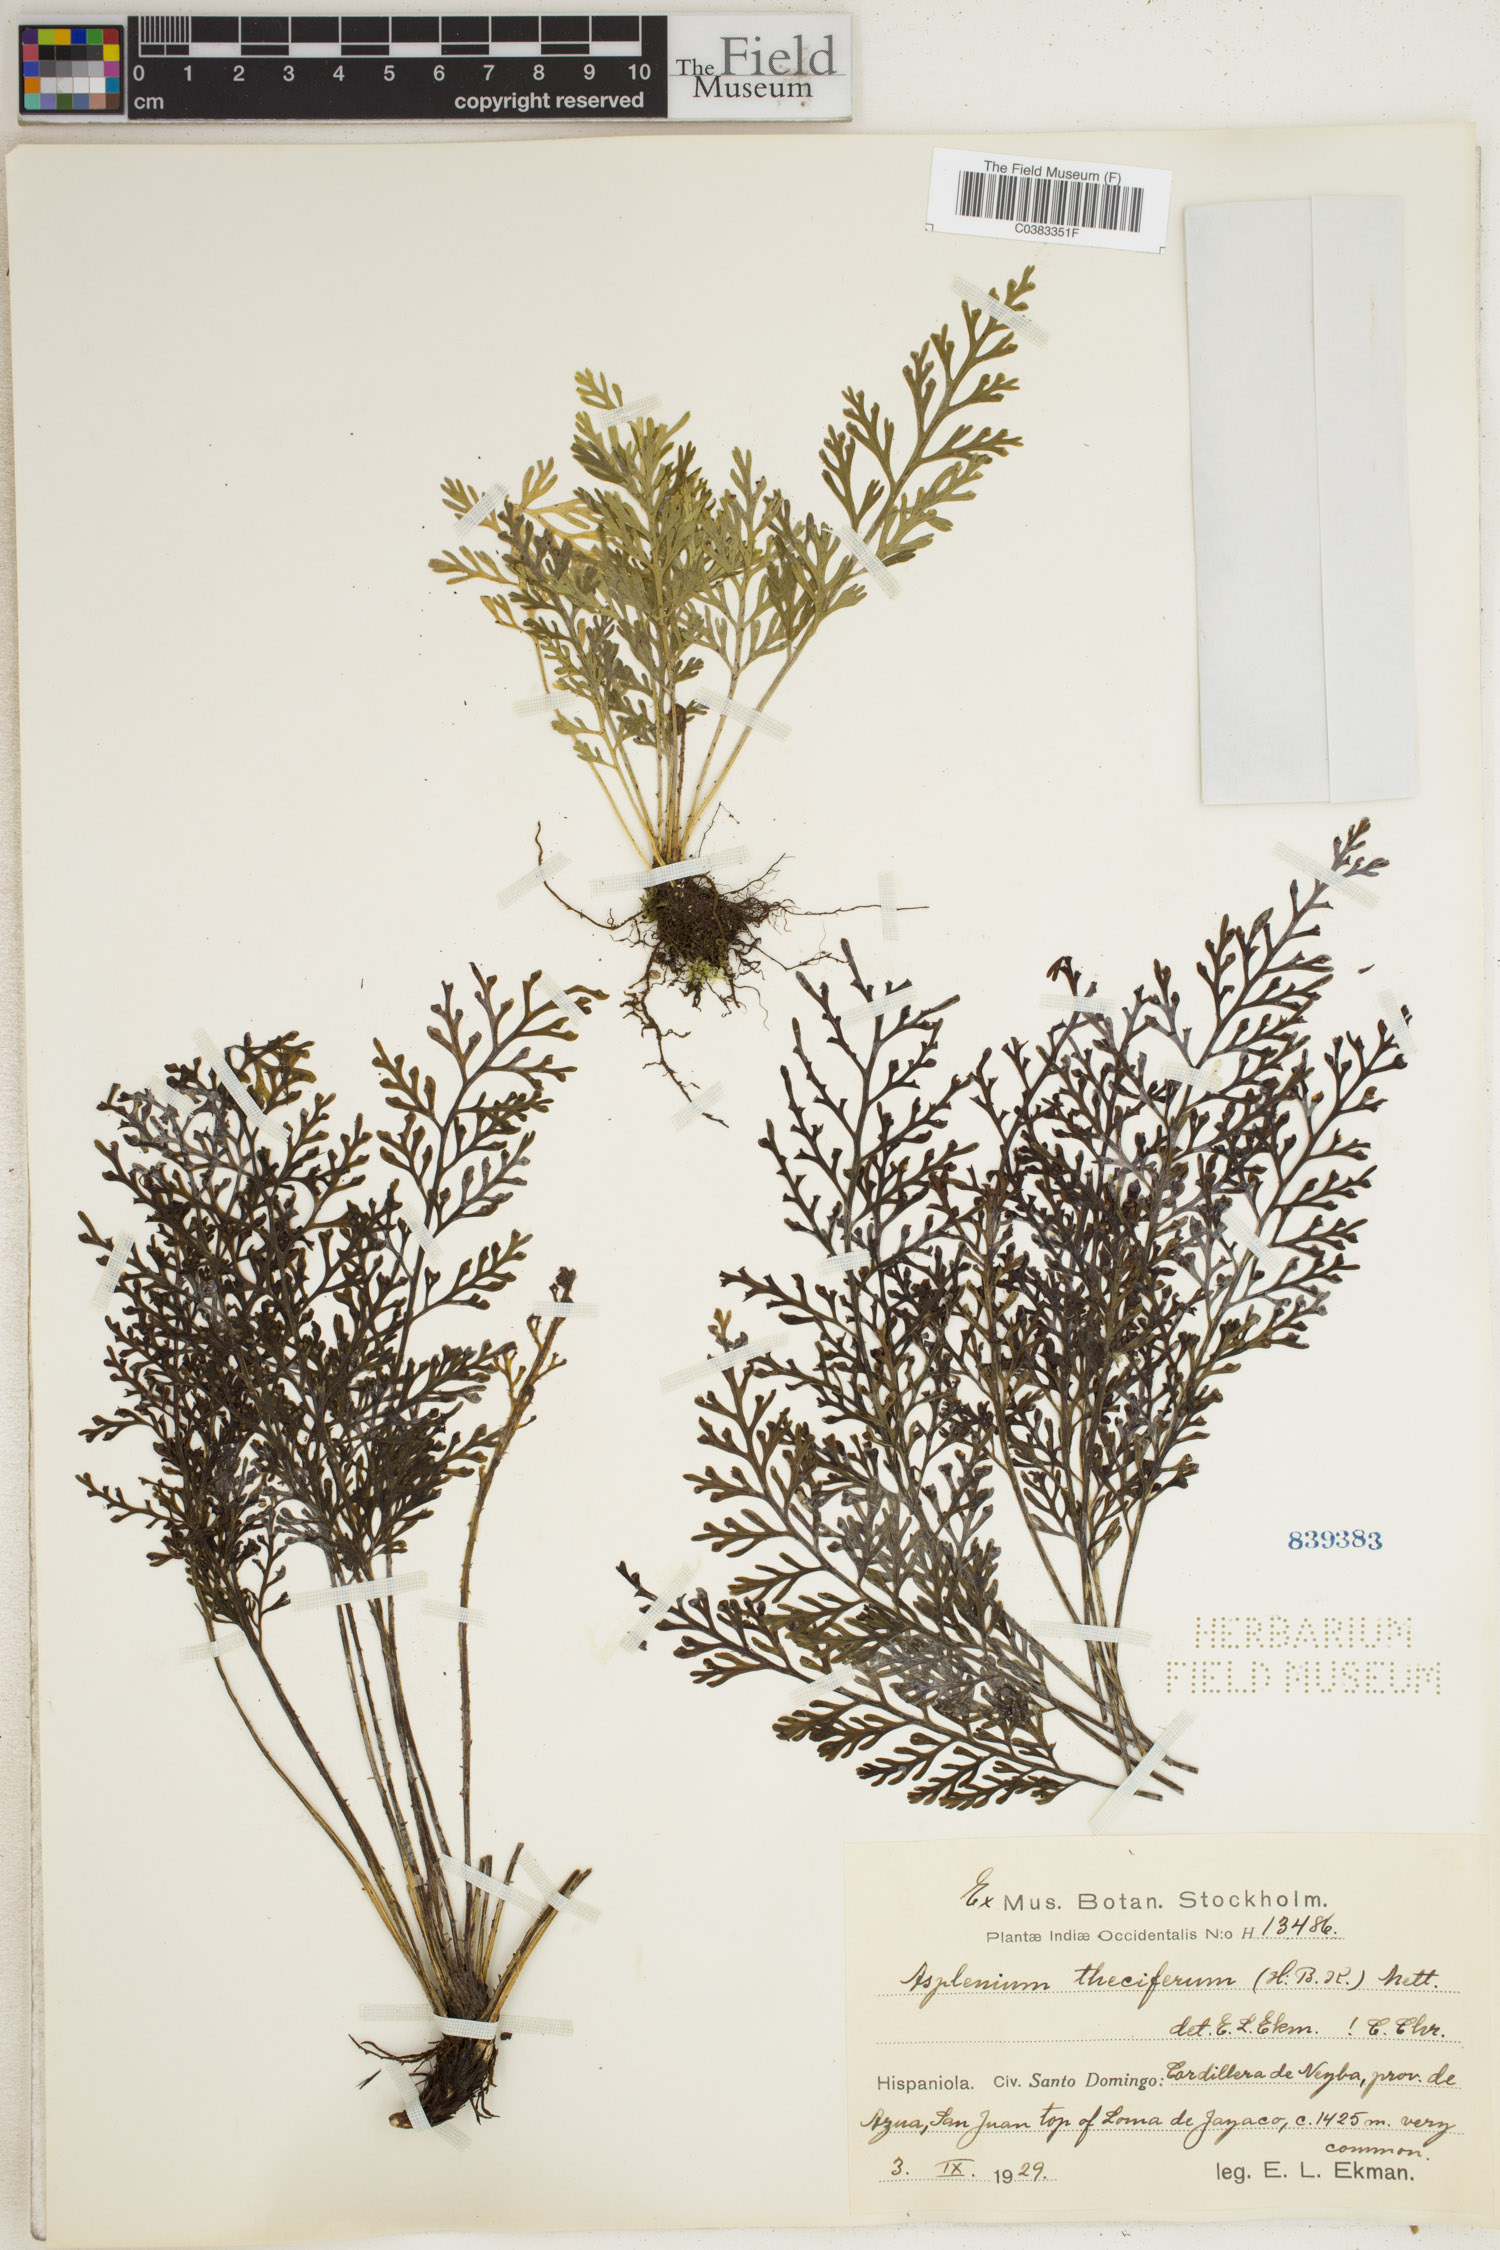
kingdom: Plantae
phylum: Tracheophyta
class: Polypodiopsida
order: Polypodiales
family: Aspleniaceae
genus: Asplenium
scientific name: Asplenium theciferum
